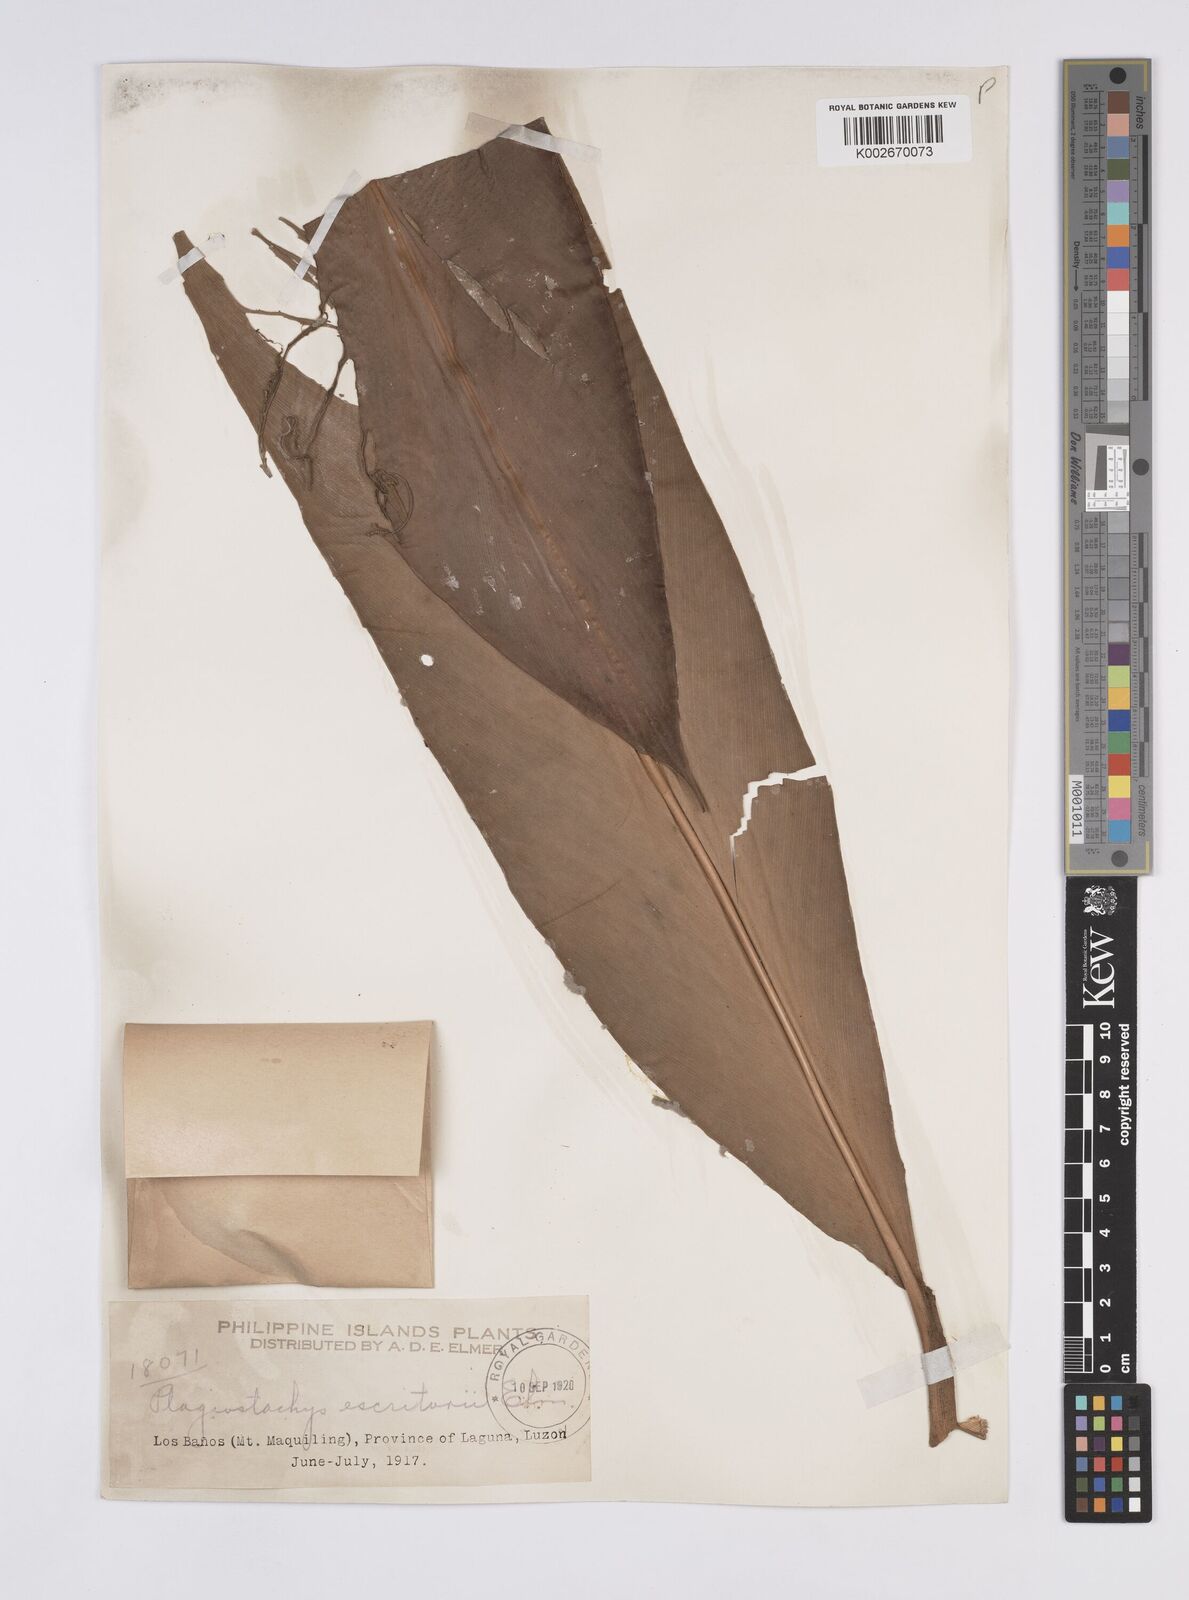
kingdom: Plantae
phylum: Tracheophyta
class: Liliopsida
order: Zingiberales
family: Zingiberaceae
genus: Plagiostachys
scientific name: Plagiostachys escritorii
